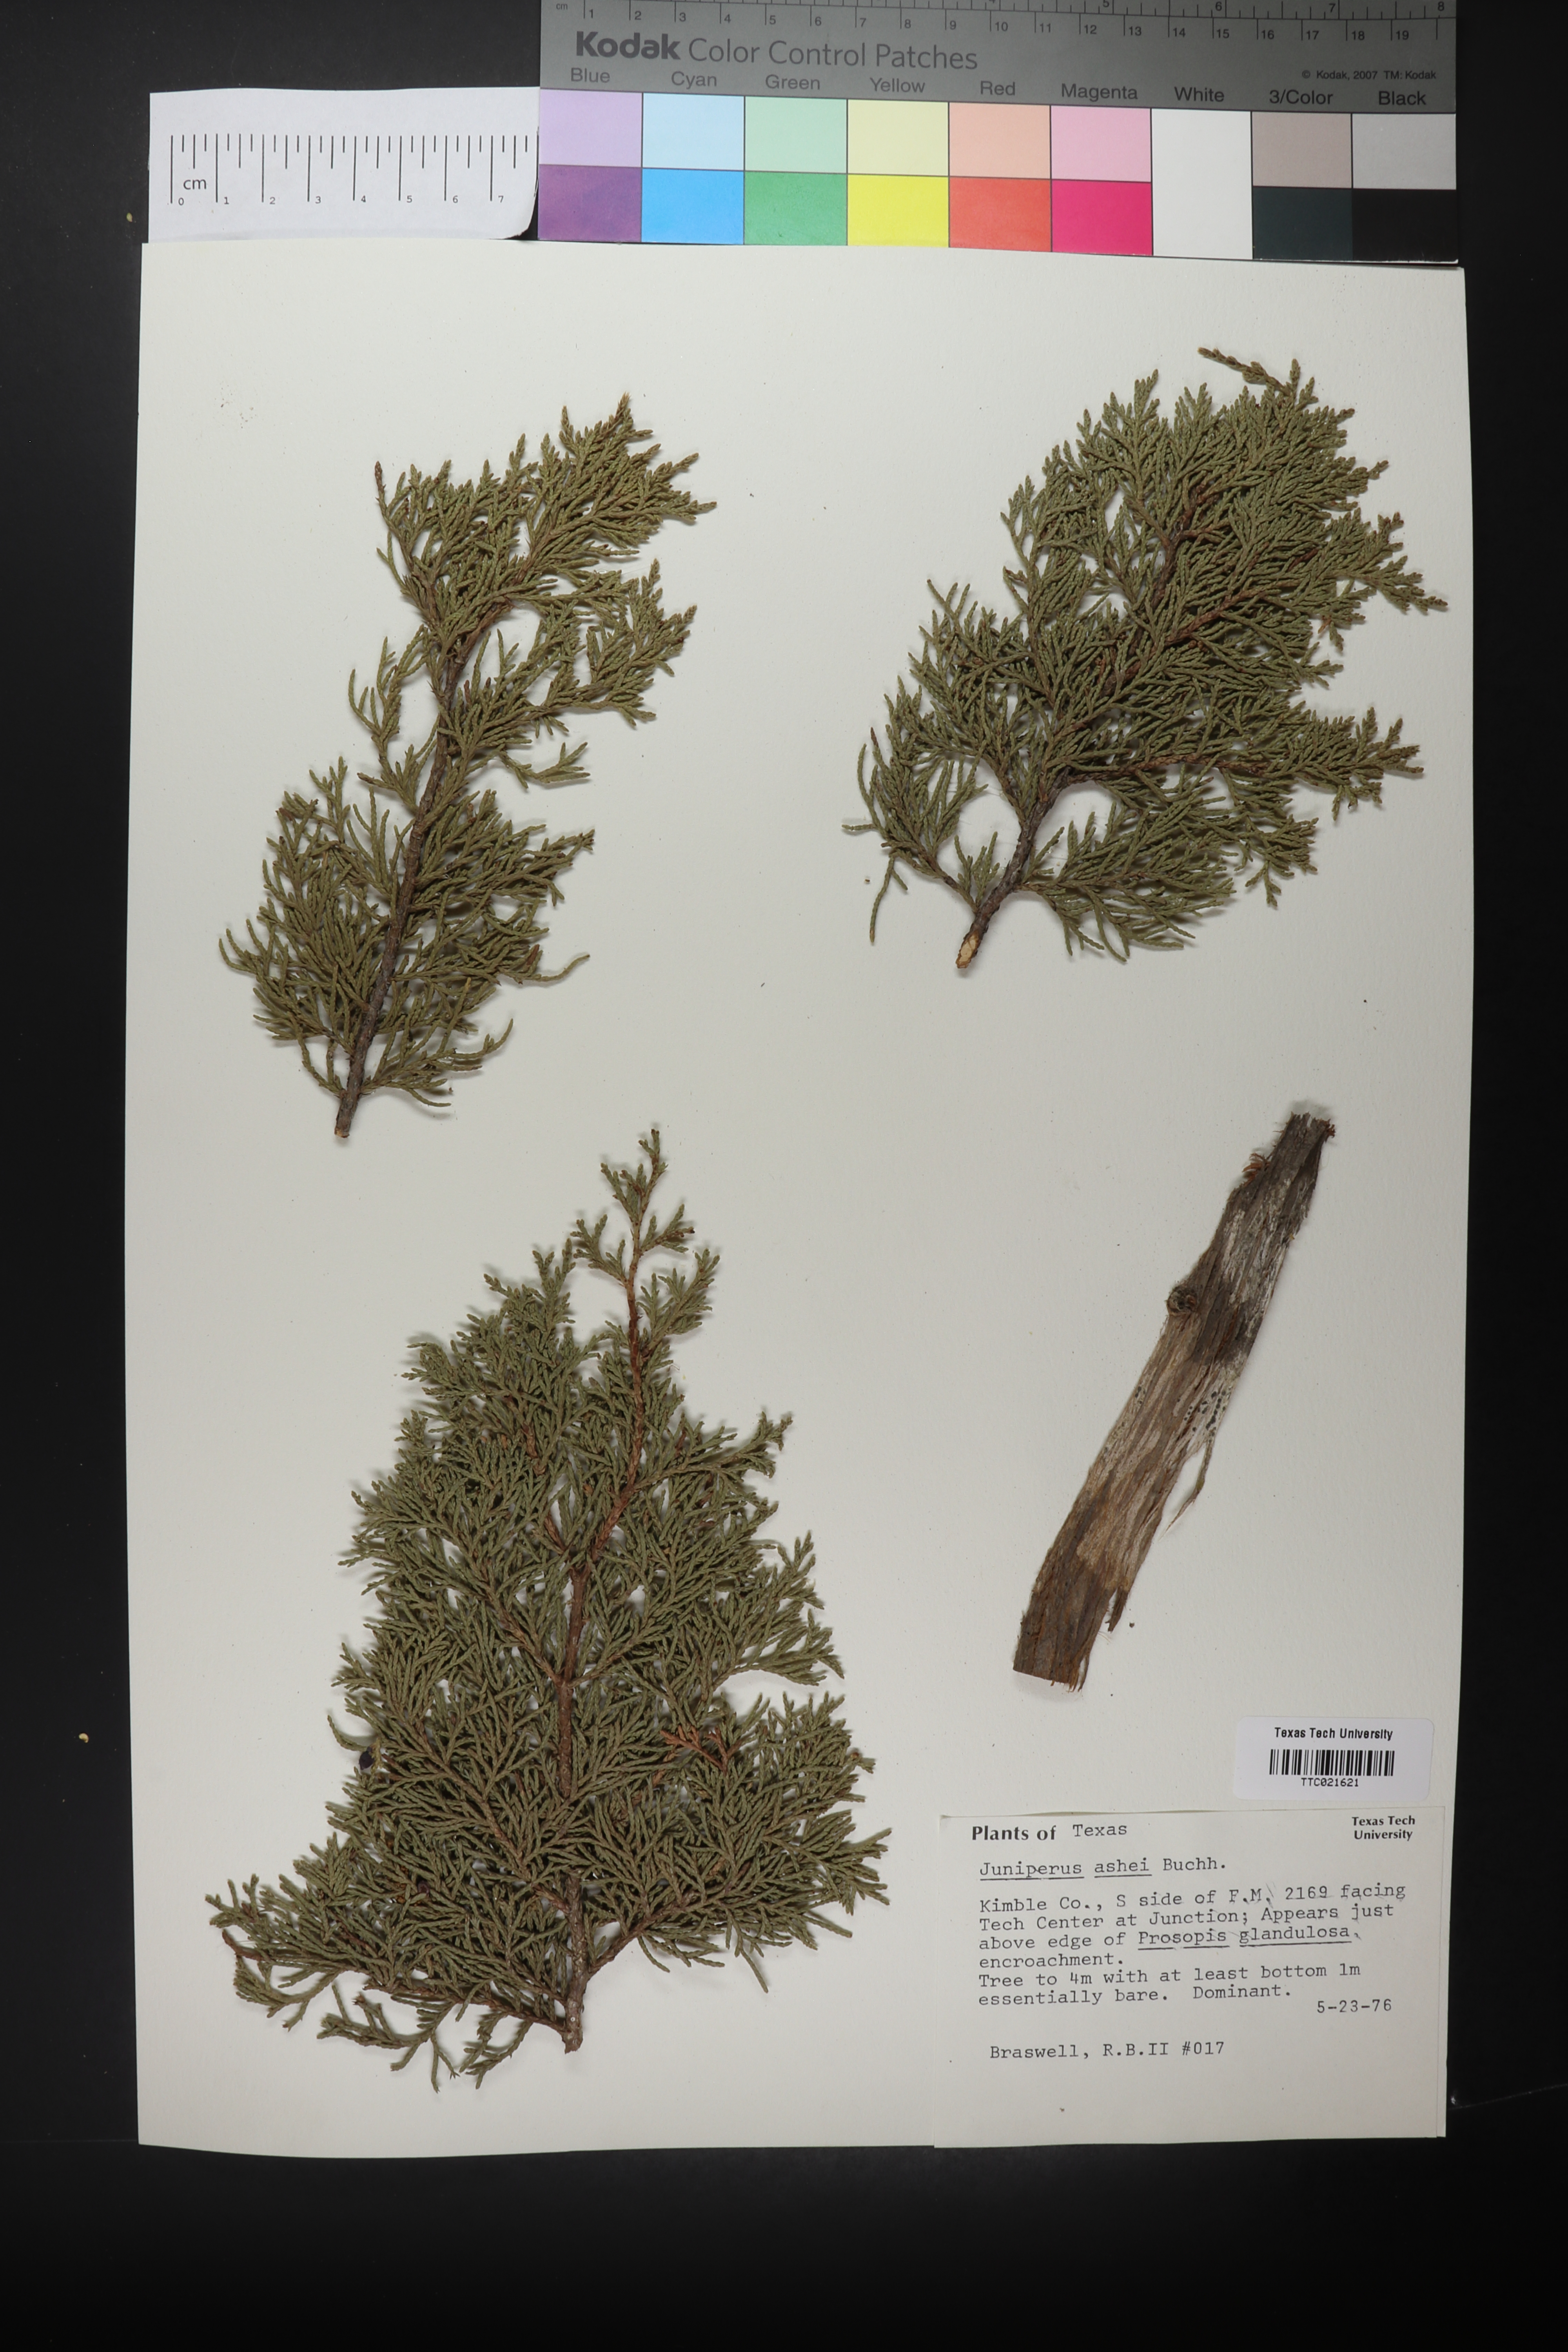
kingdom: Plantae
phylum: Tracheophyta
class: Pinopsida
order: Pinales
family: Cupressaceae
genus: Juniperus
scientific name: Juniperus ashei
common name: Mexican juniper
